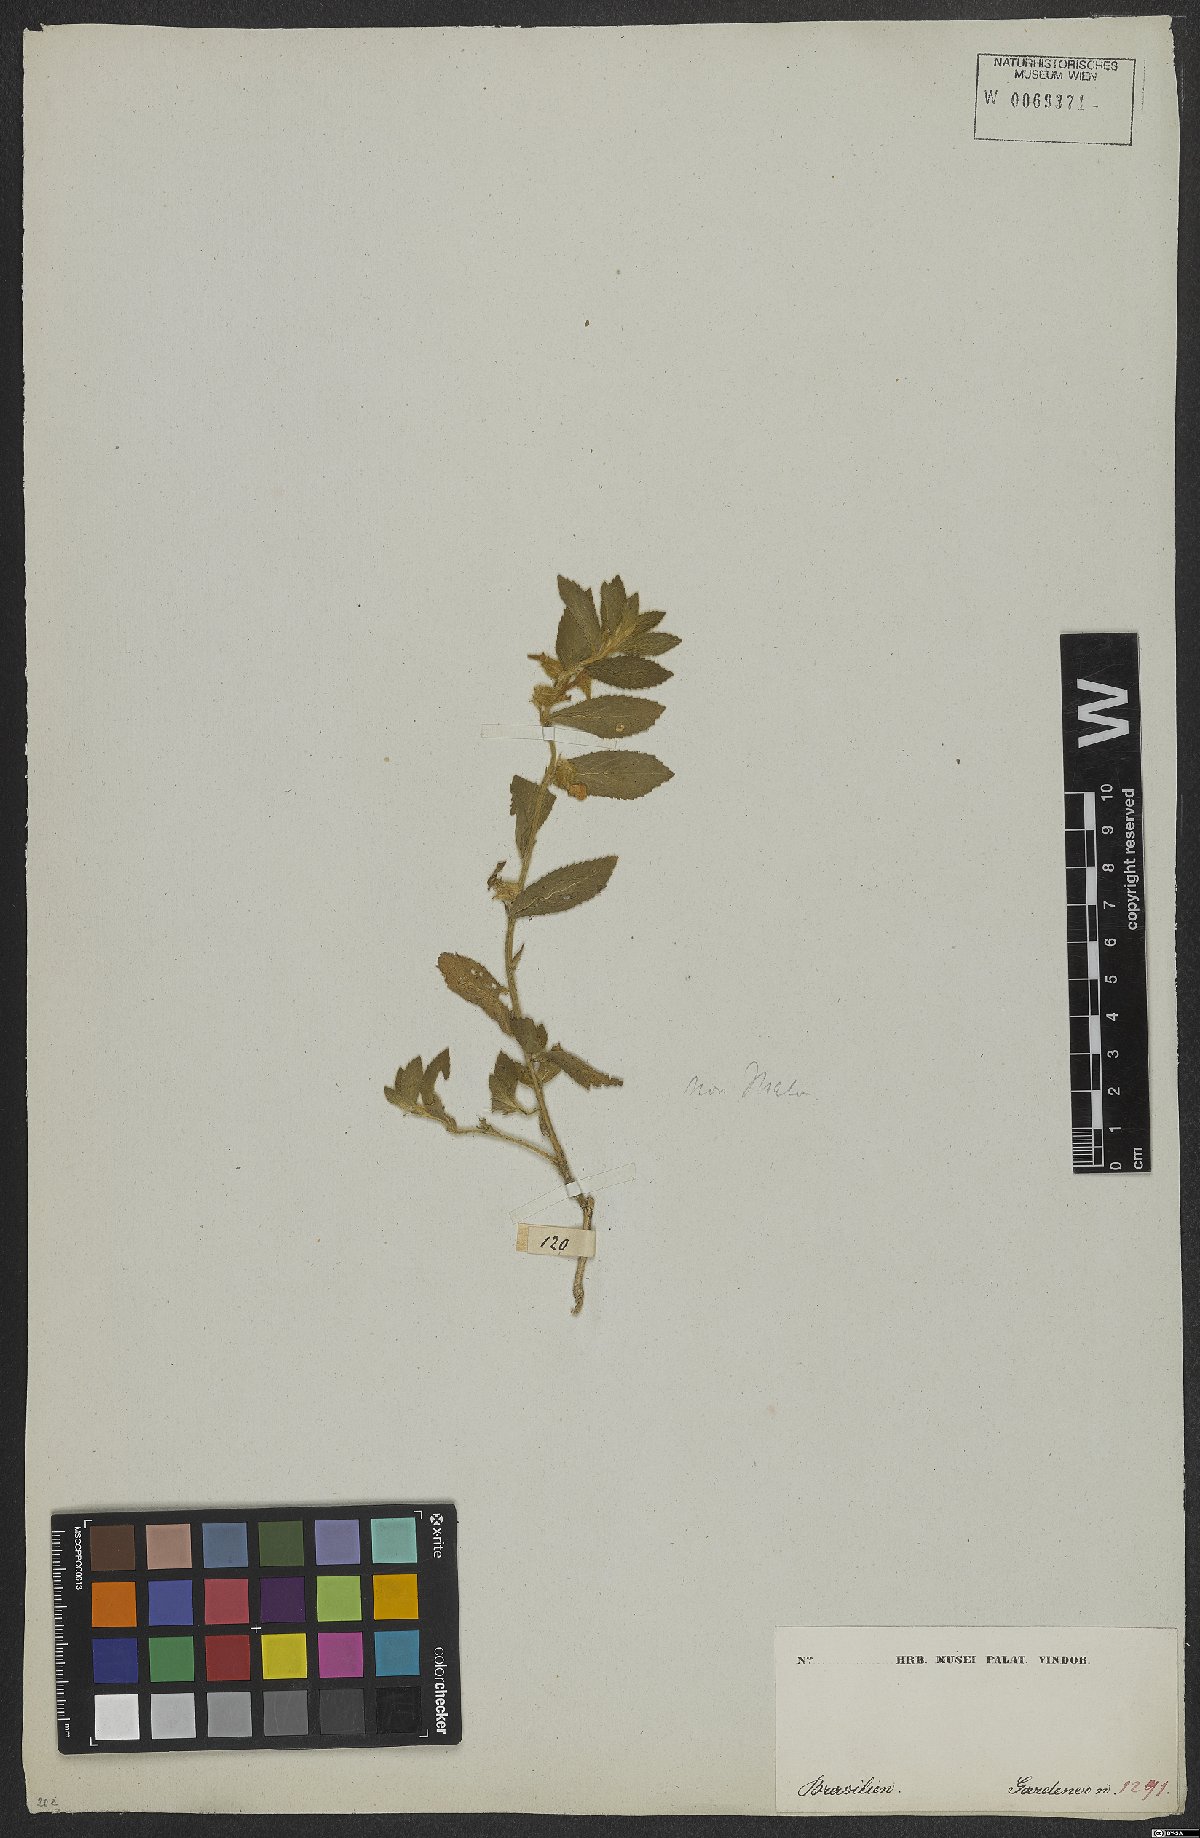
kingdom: Plantae
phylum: Tracheophyta
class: Magnoliopsida
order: Malvales
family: Malvaceae
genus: Sida
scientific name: Sida
